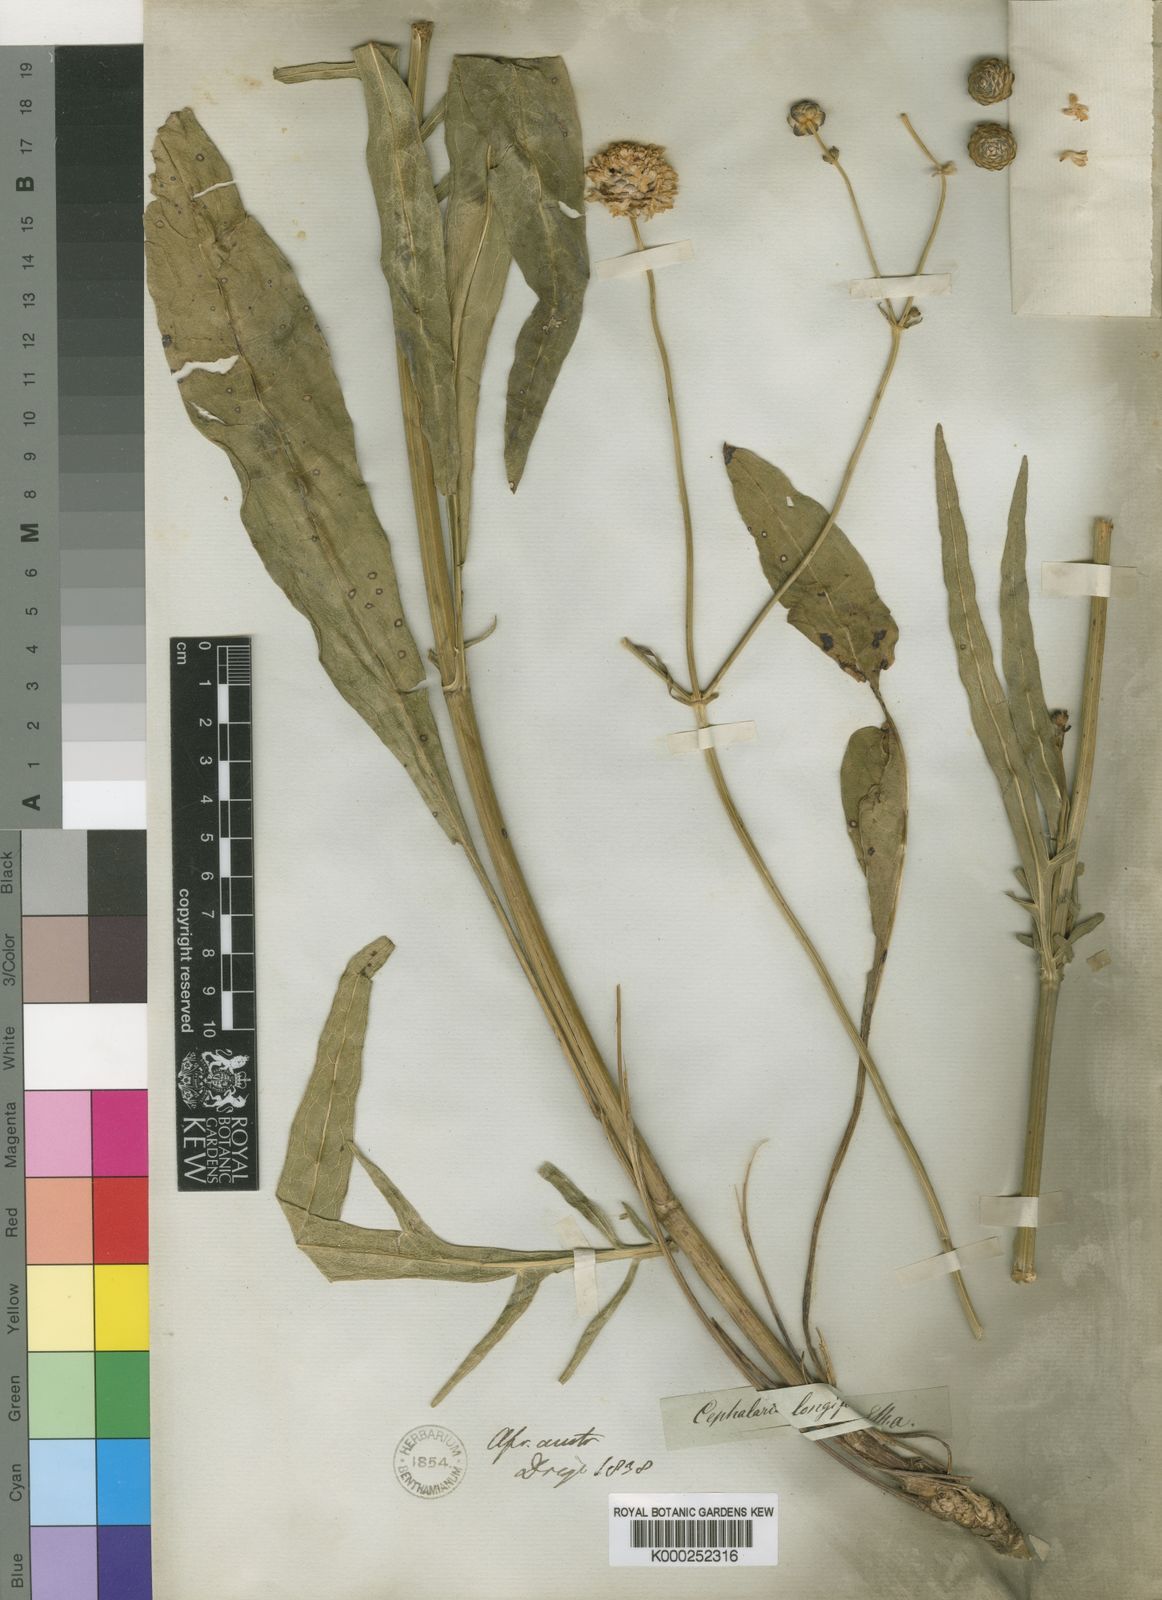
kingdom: Plantae
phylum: Tracheophyta
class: Magnoliopsida
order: Dipsacales
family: Caprifoliaceae
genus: Cephalaria
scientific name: Cephalaria humilis
